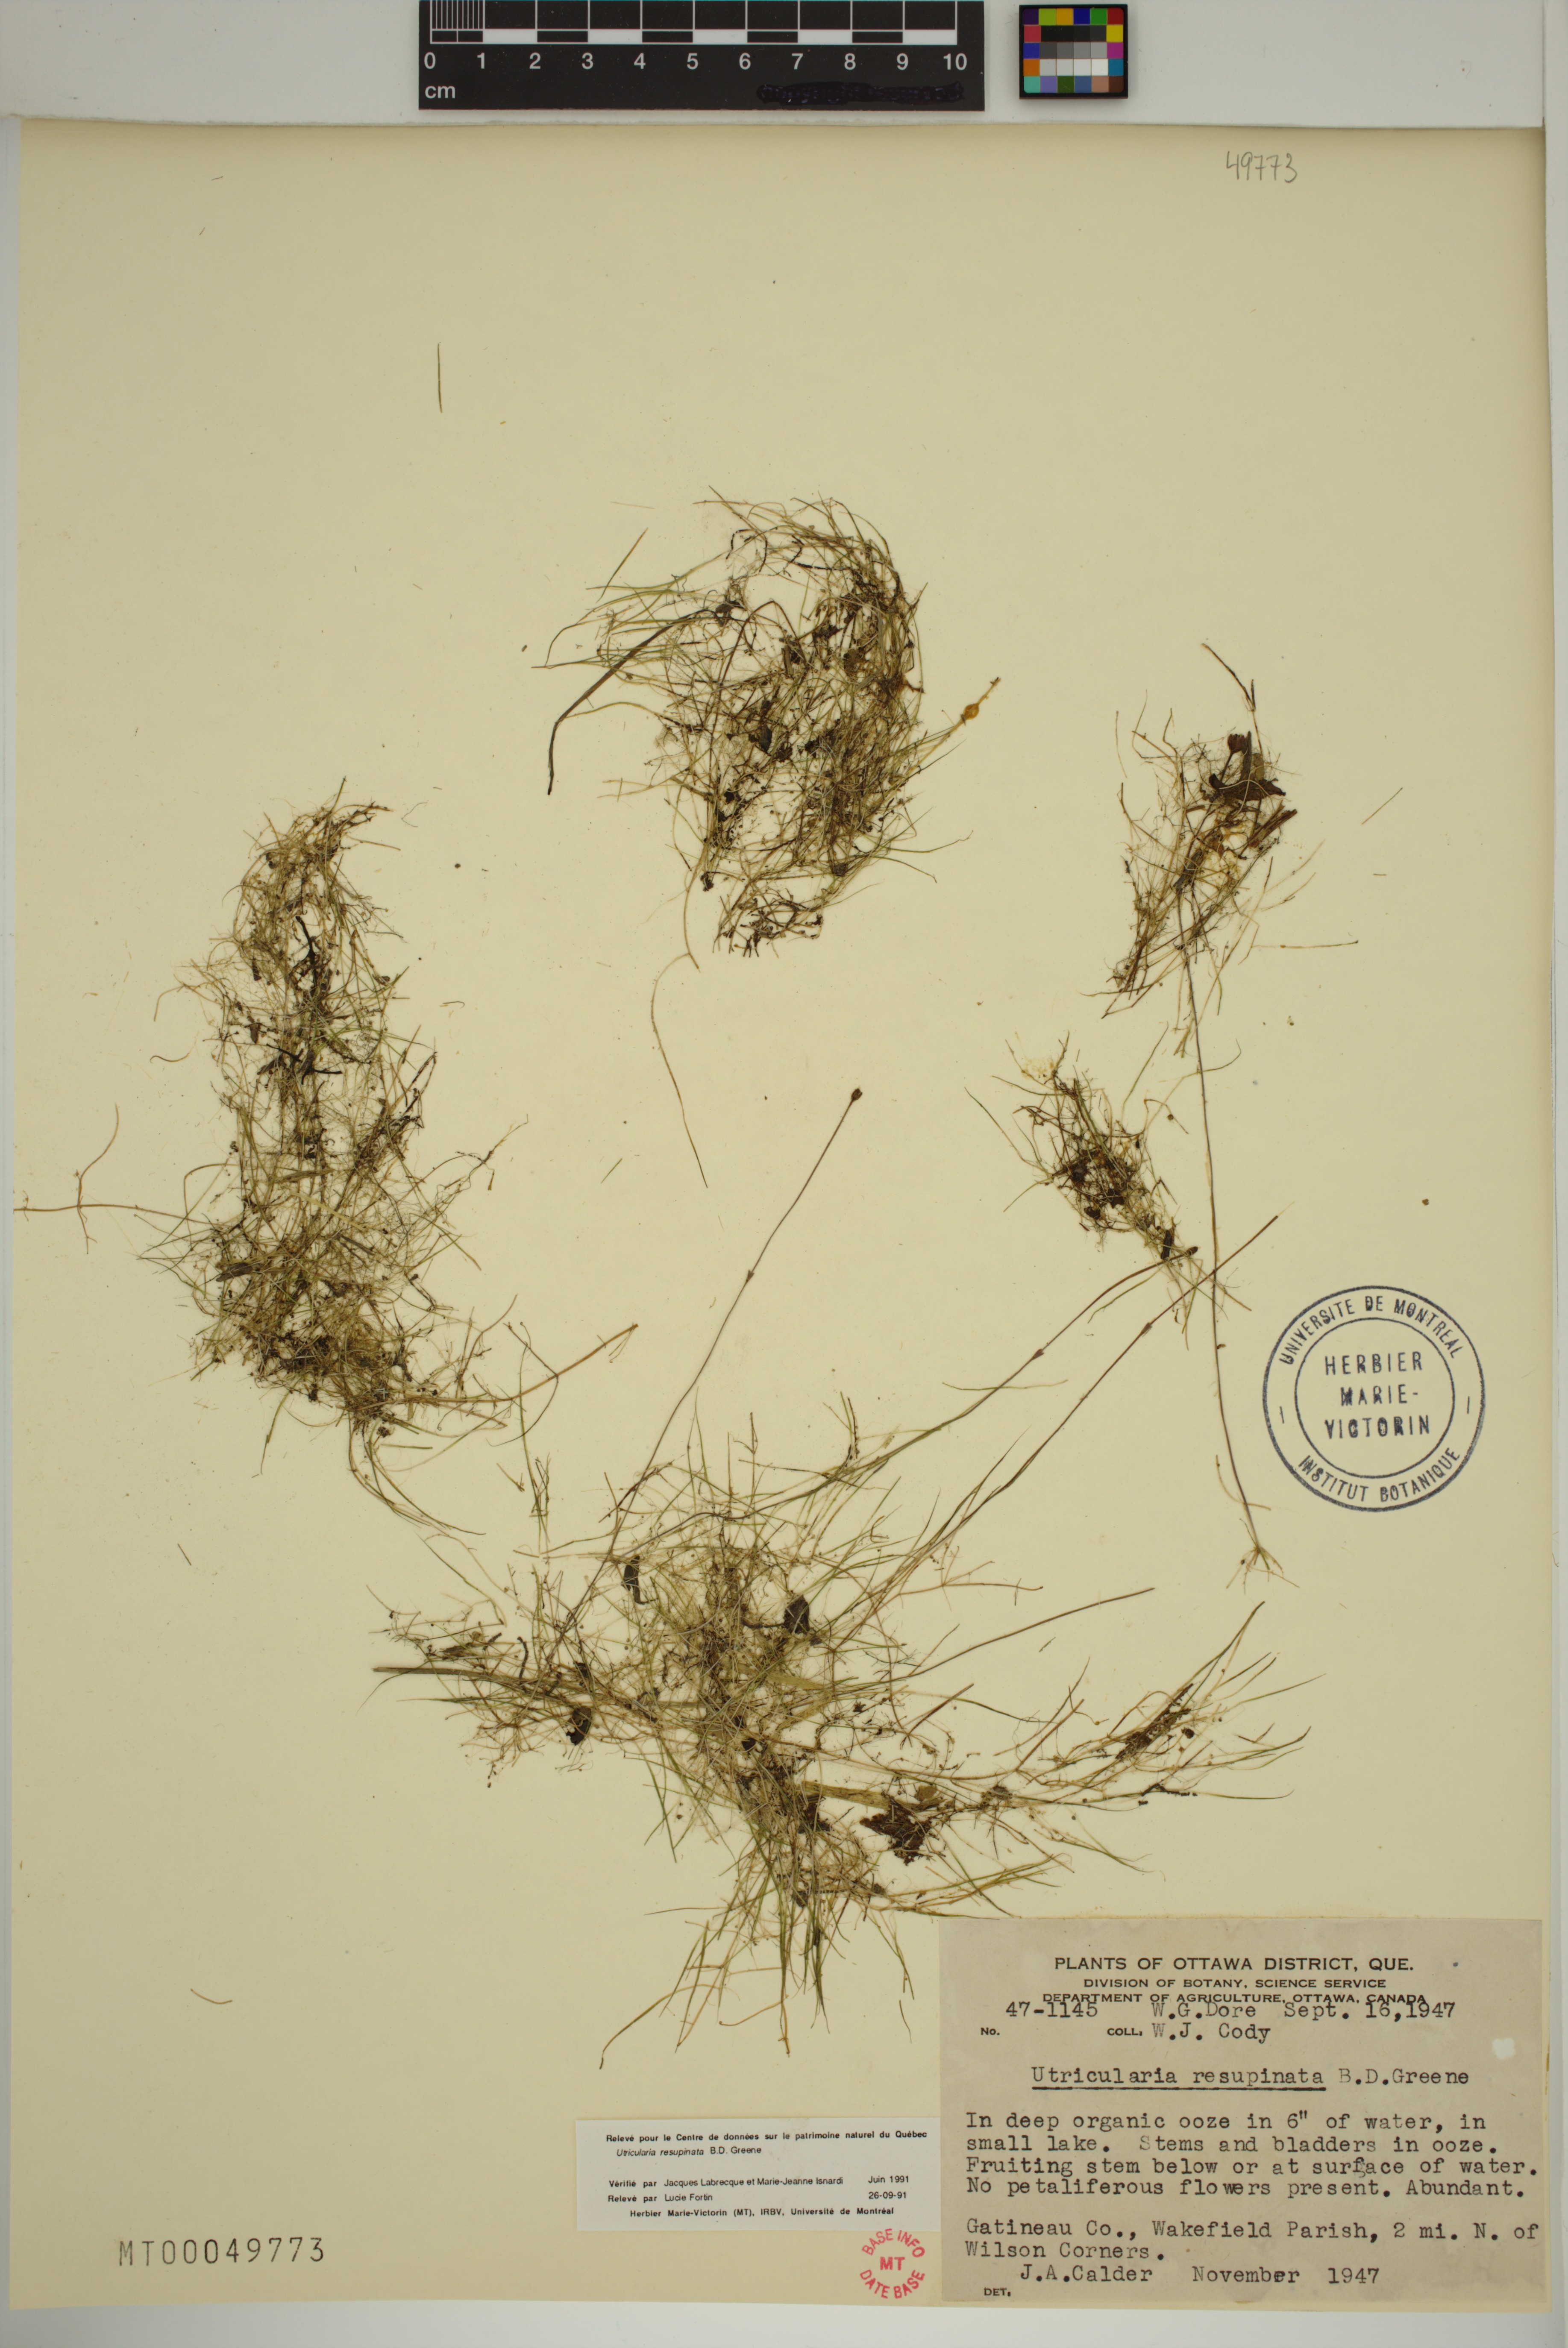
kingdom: Plantae
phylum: Tracheophyta
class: Magnoliopsida
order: Lamiales
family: Lentibulariaceae
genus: Utricularia
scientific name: Utricularia resupinata
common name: Northeastern bladderwort
